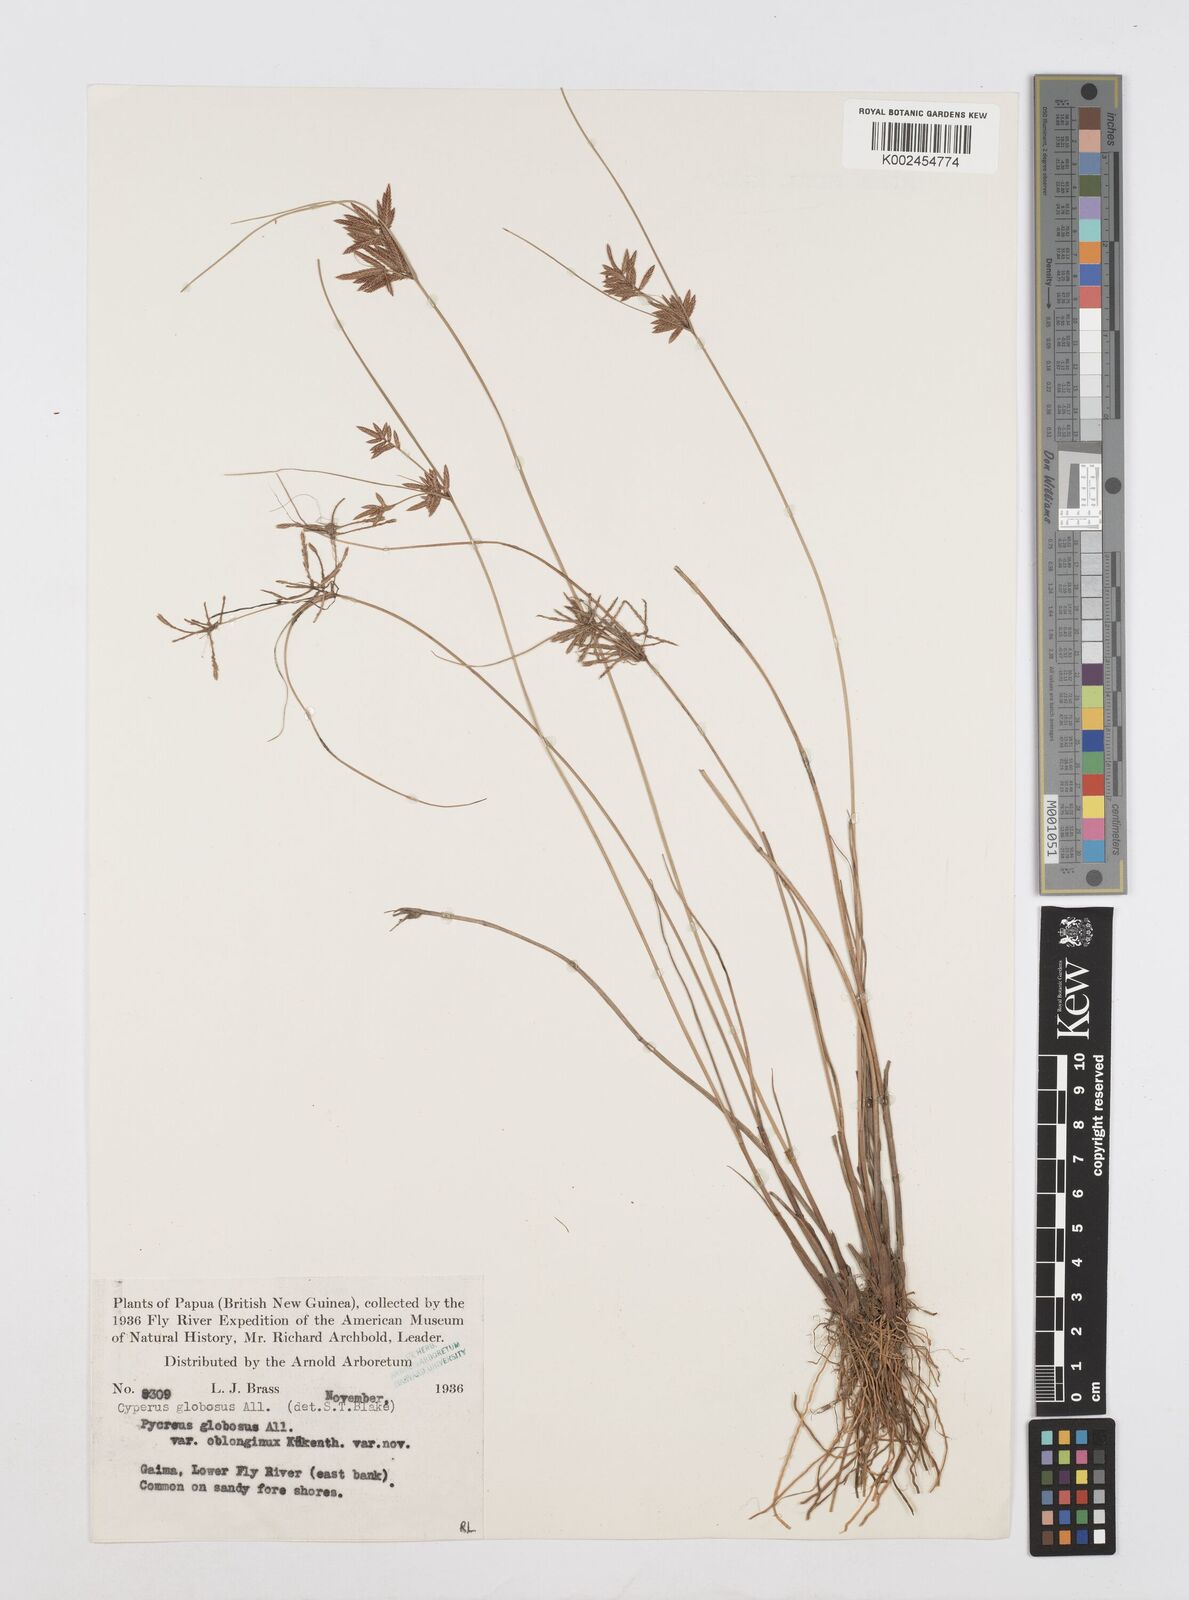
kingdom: Plantae
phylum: Tracheophyta
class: Liliopsida
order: Poales
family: Cyperaceae
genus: Cyperus
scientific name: Cyperus flavidus
